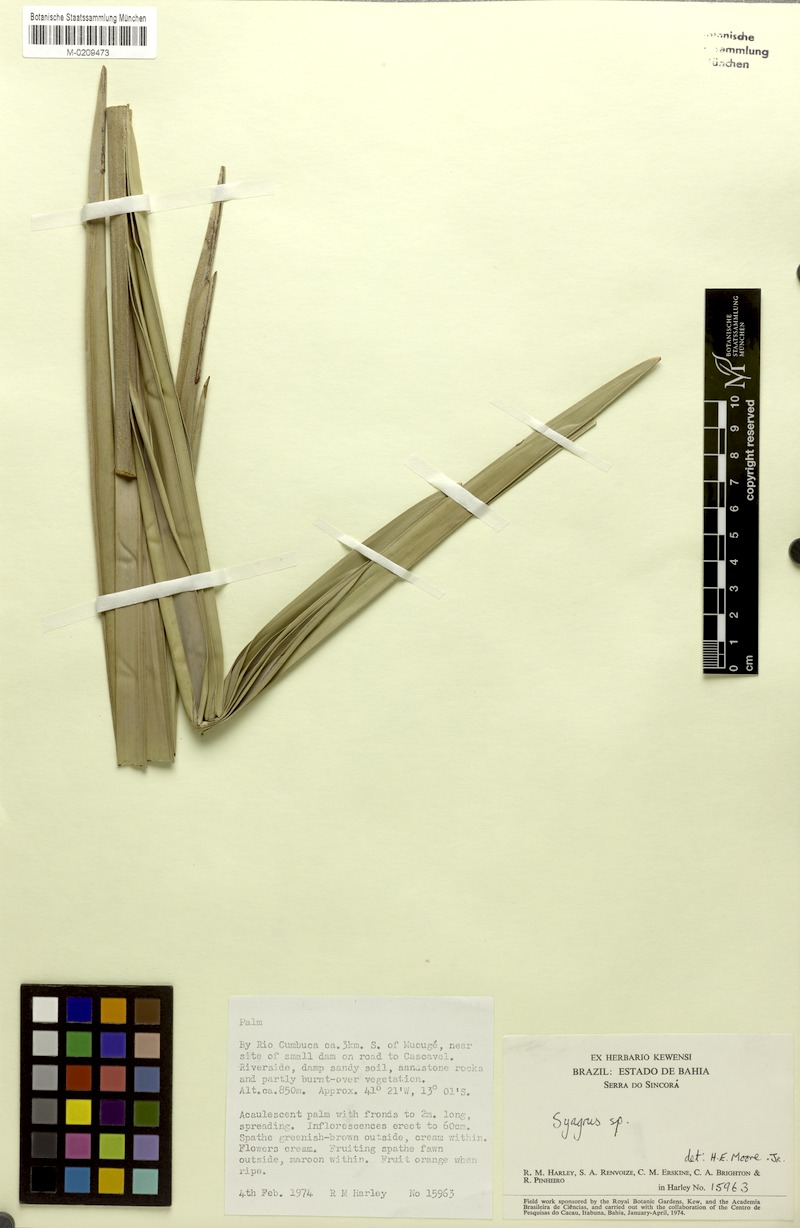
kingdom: Plantae
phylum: Tracheophyta
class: Liliopsida
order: Arecales
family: Arecaceae
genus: Syagrus
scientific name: Syagrus
